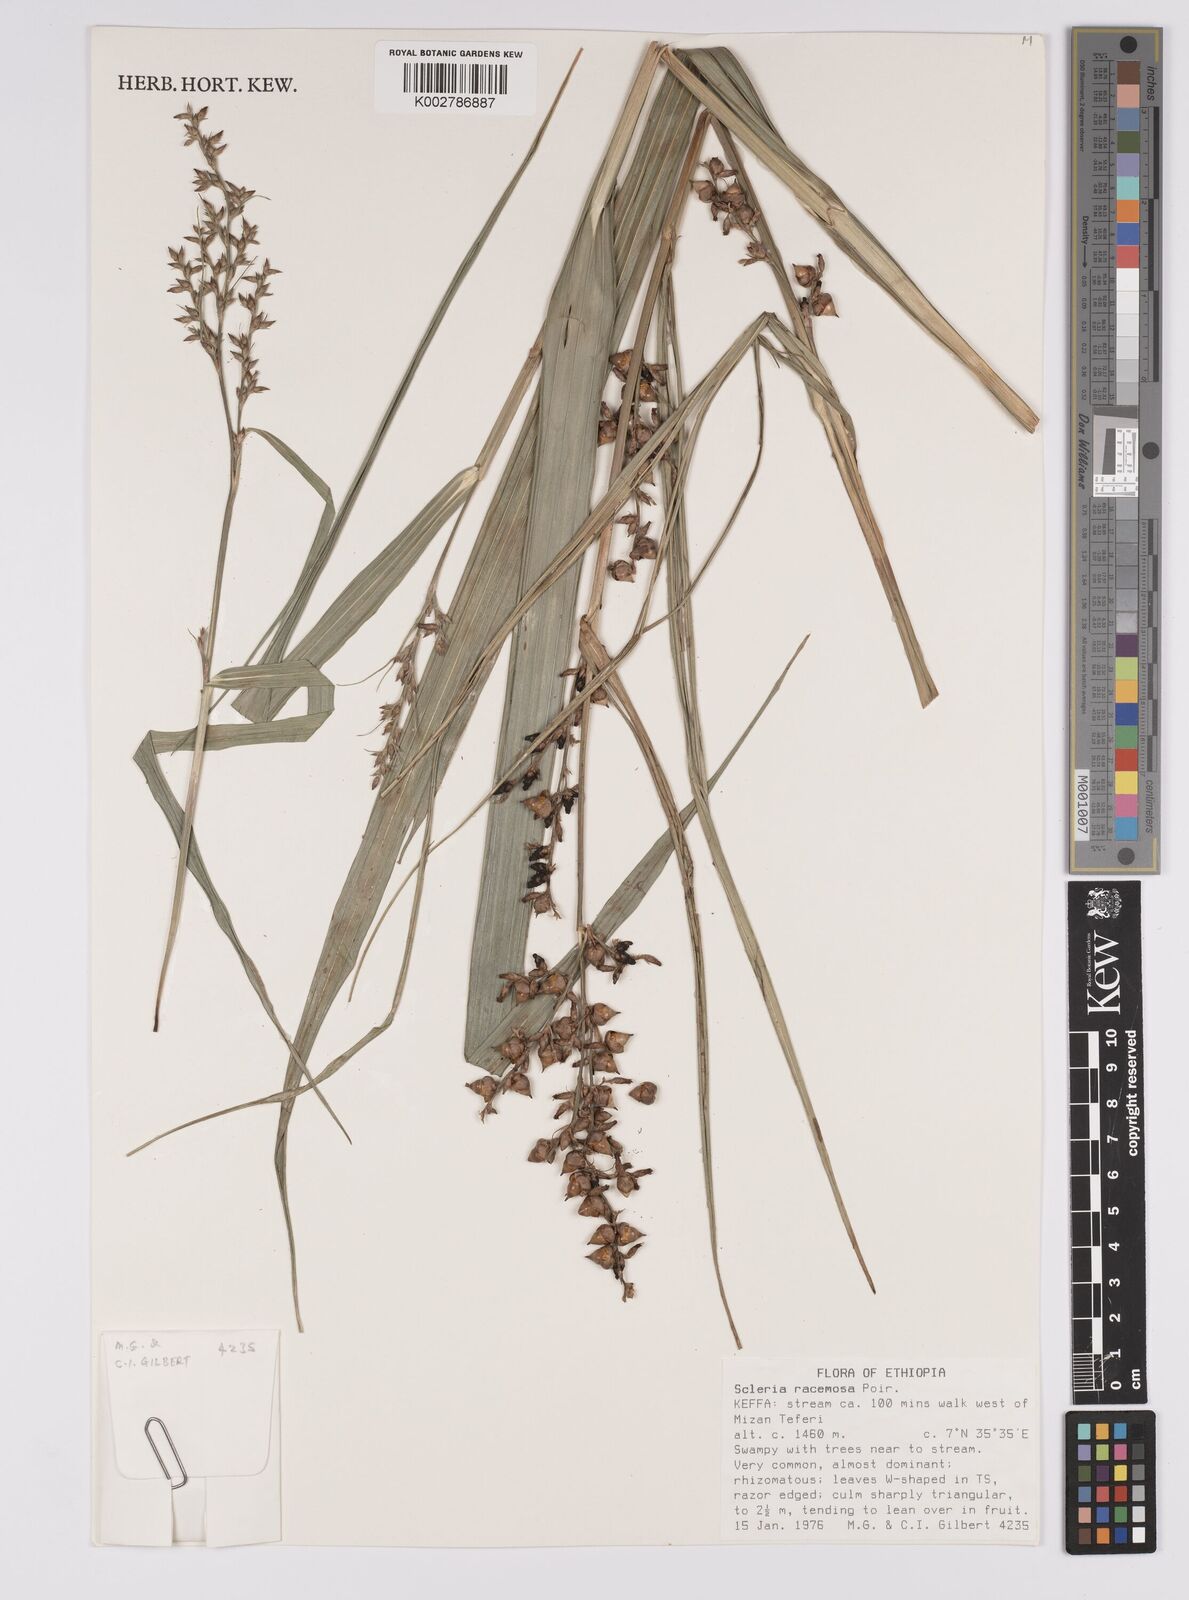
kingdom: Plantae
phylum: Tracheophyta
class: Liliopsida
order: Poales
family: Cyperaceae
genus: Scleria
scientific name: Scleria racemosa
